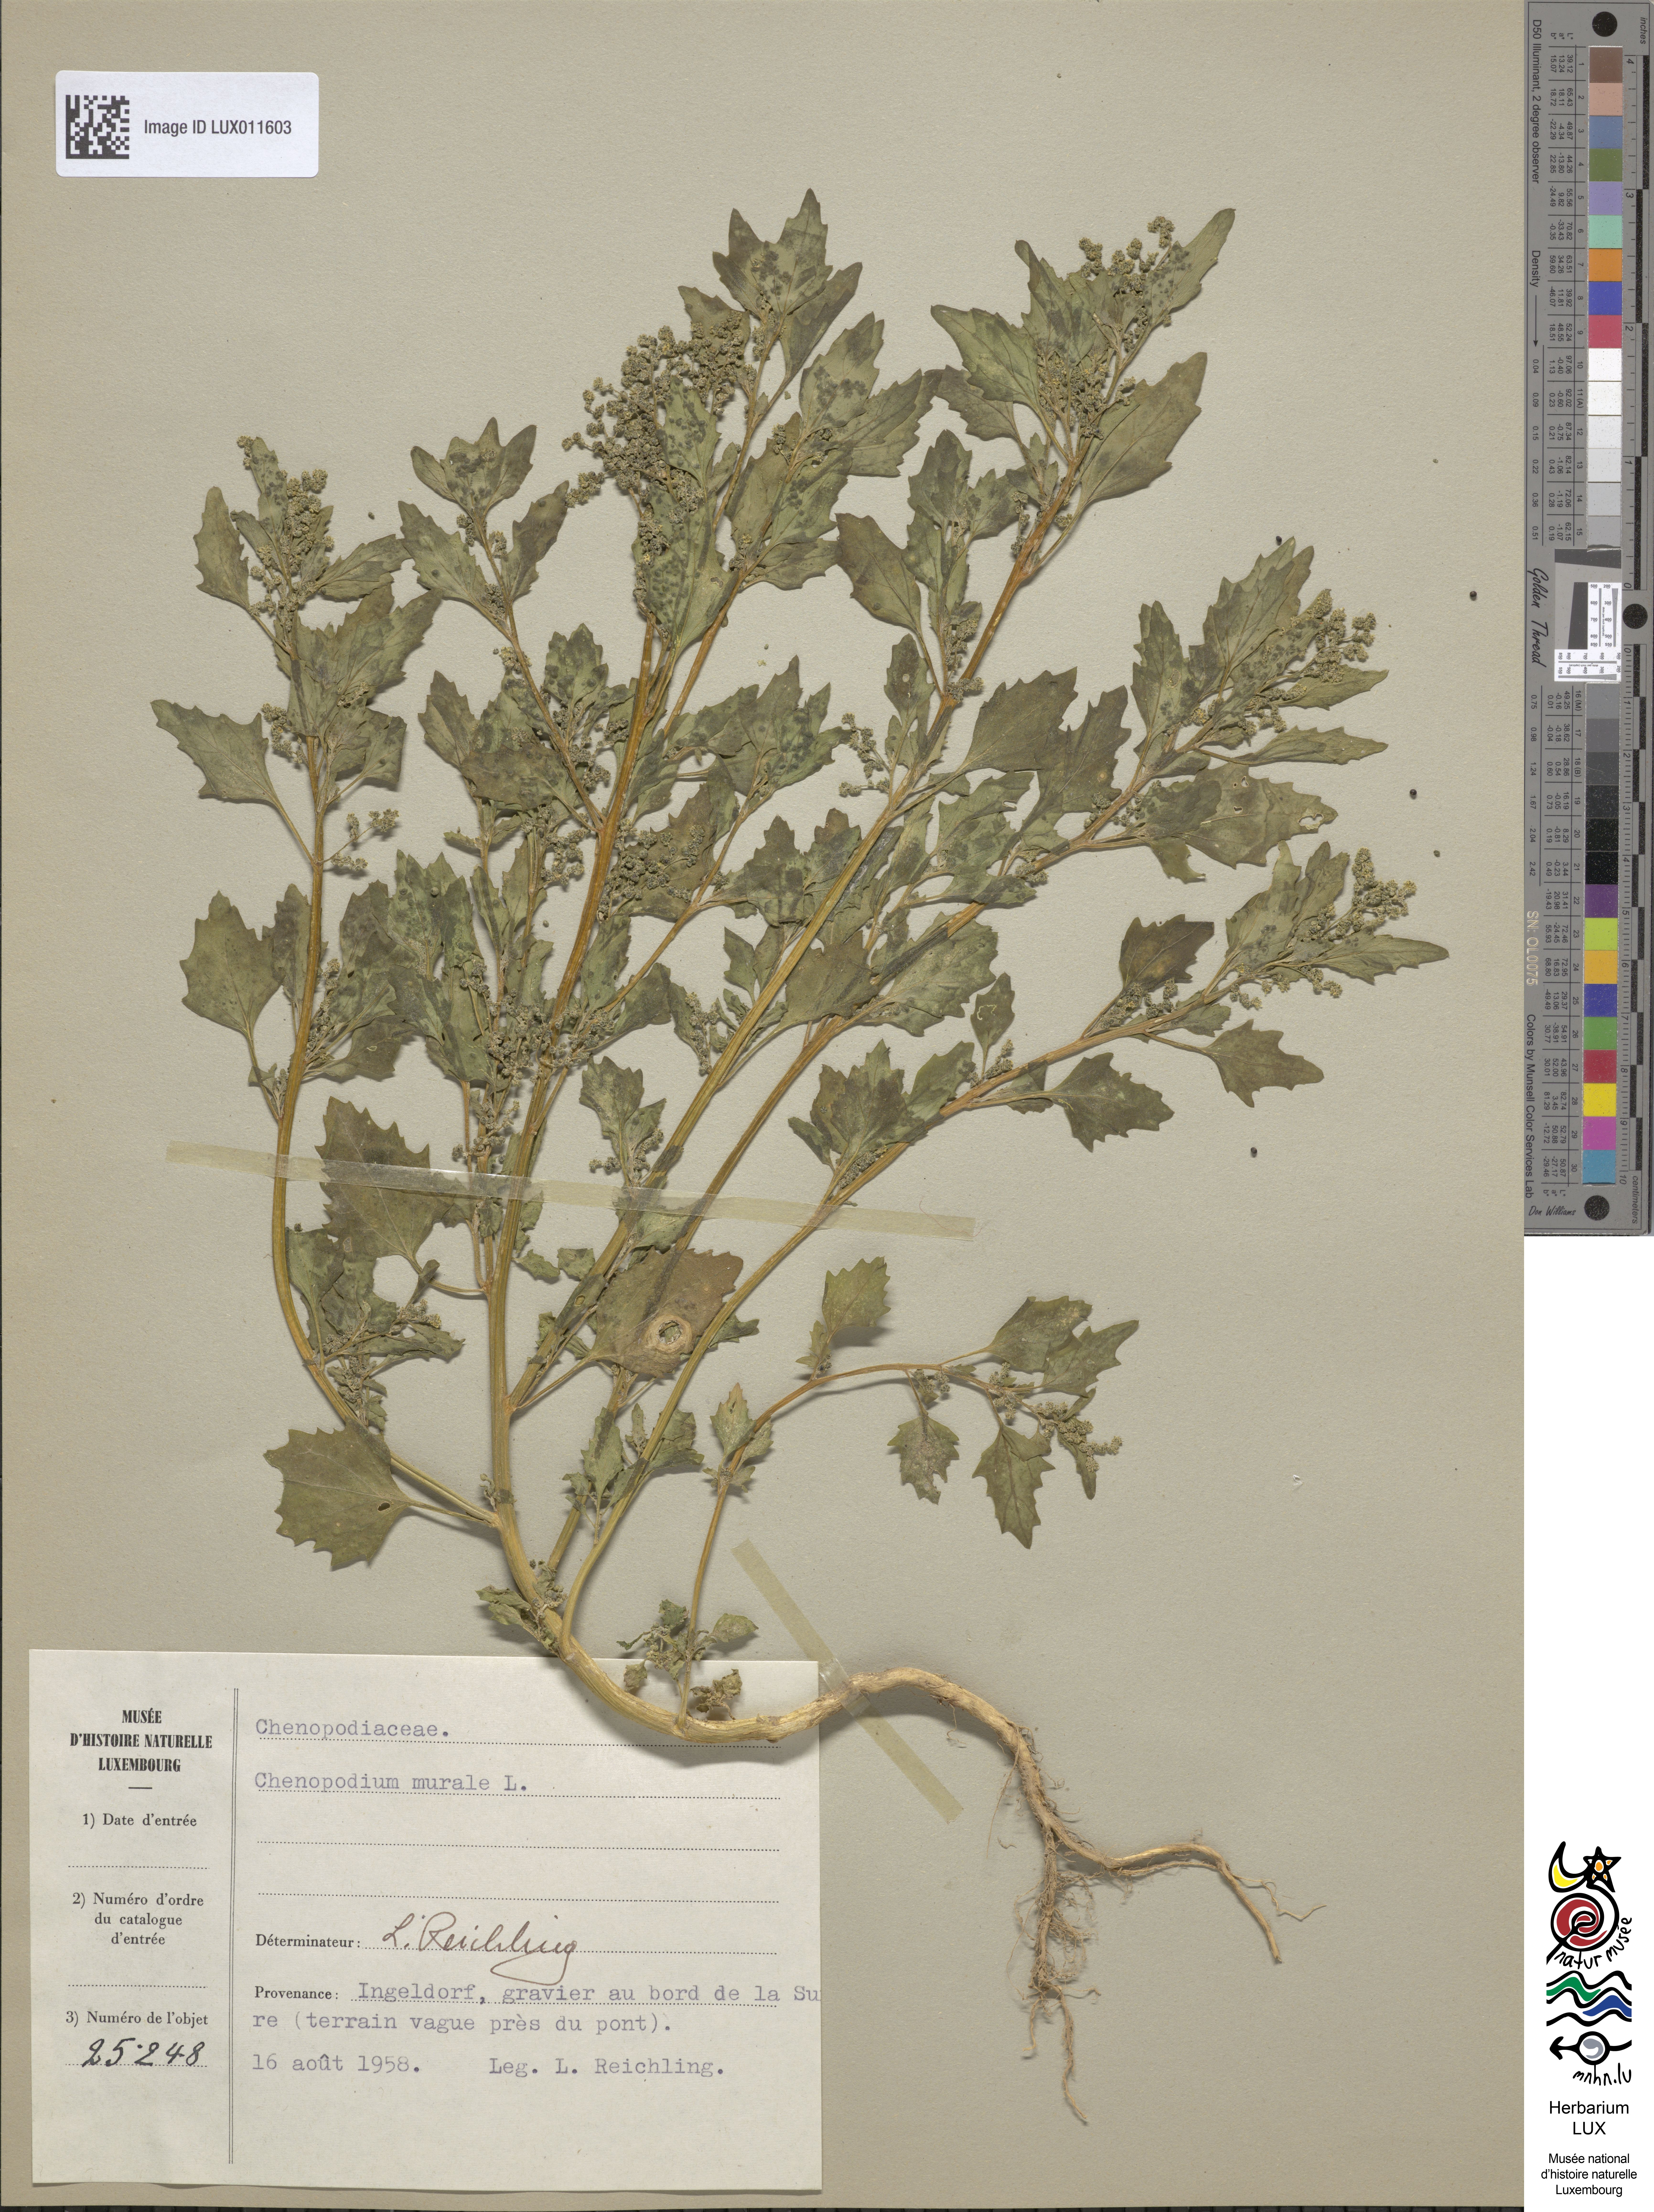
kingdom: Plantae
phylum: Tracheophyta
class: Magnoliopsida
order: Caryophyllales
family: Amaranthaceae
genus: Chenopodiastrum
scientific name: Chenopodiastrum murale
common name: Sowbane
